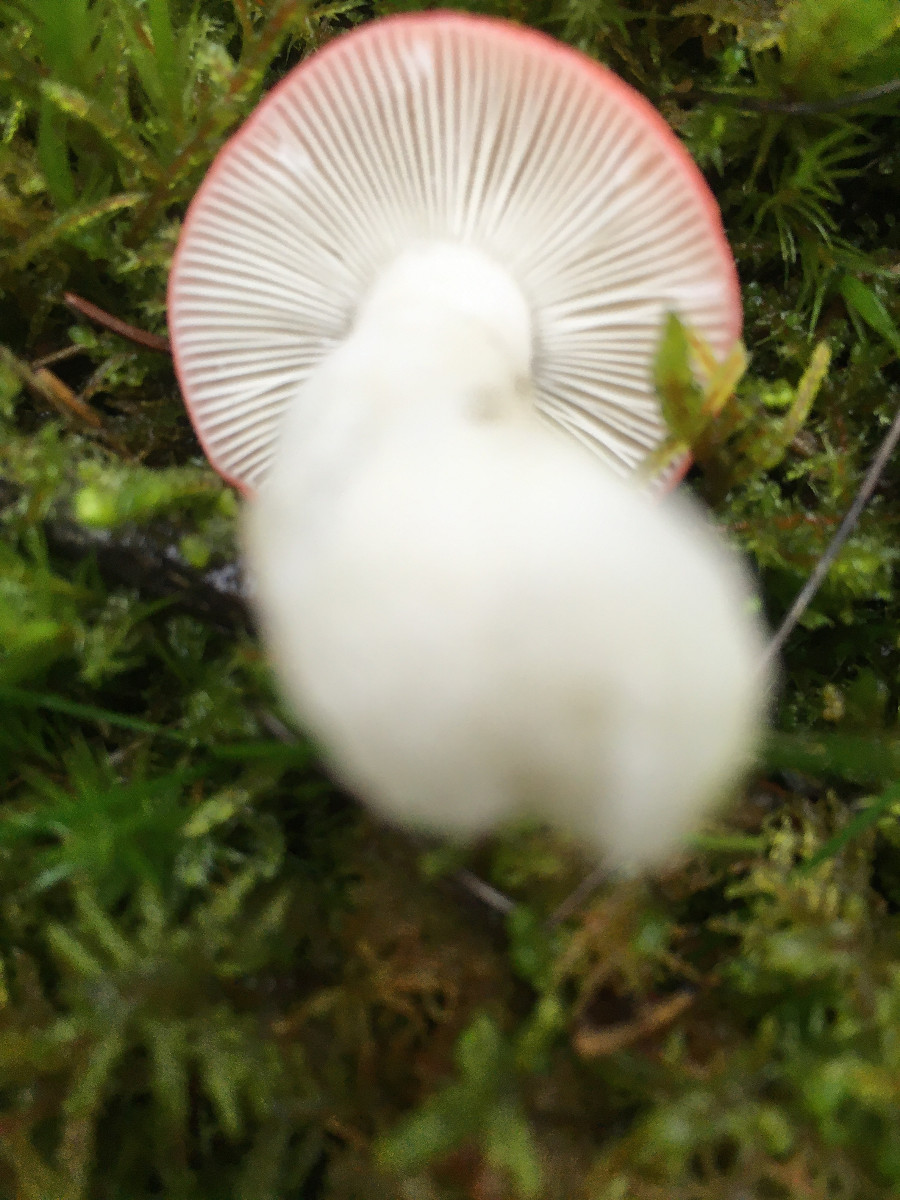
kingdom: Fungi
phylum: Basidiomycota
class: Agaricomycetes
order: Russulales
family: Russulaceae
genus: Russula
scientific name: Russula emetica
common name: stor gift-skørhat
